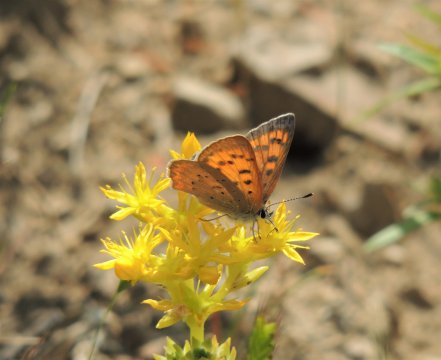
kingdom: Animalia
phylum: Arthropoda
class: Insecta
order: Lepidoptera
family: Sesiidae
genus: Sesia
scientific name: Sesia Lycaena helloides
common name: Purplish Copper
